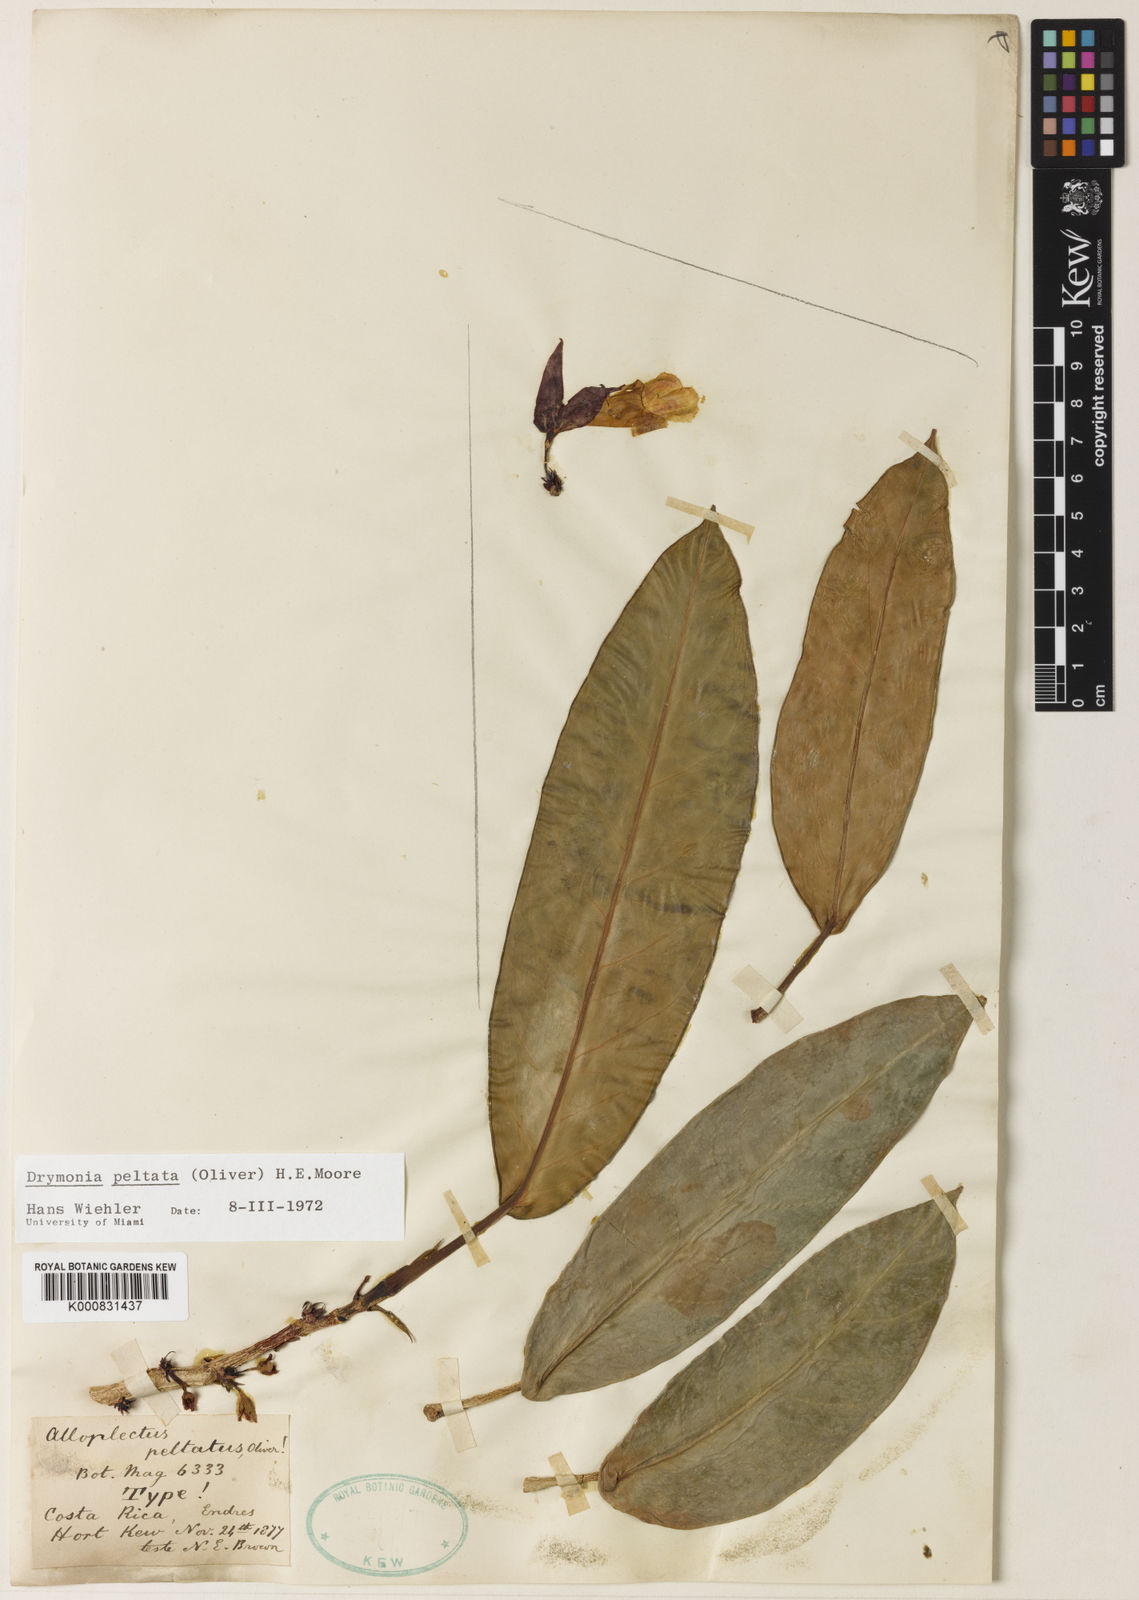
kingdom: Plantae
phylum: Tracheophyta
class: Magnoliopsida
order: Lamiales
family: Gesneriaceae
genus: Drymonia
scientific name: Drymonia peltata
